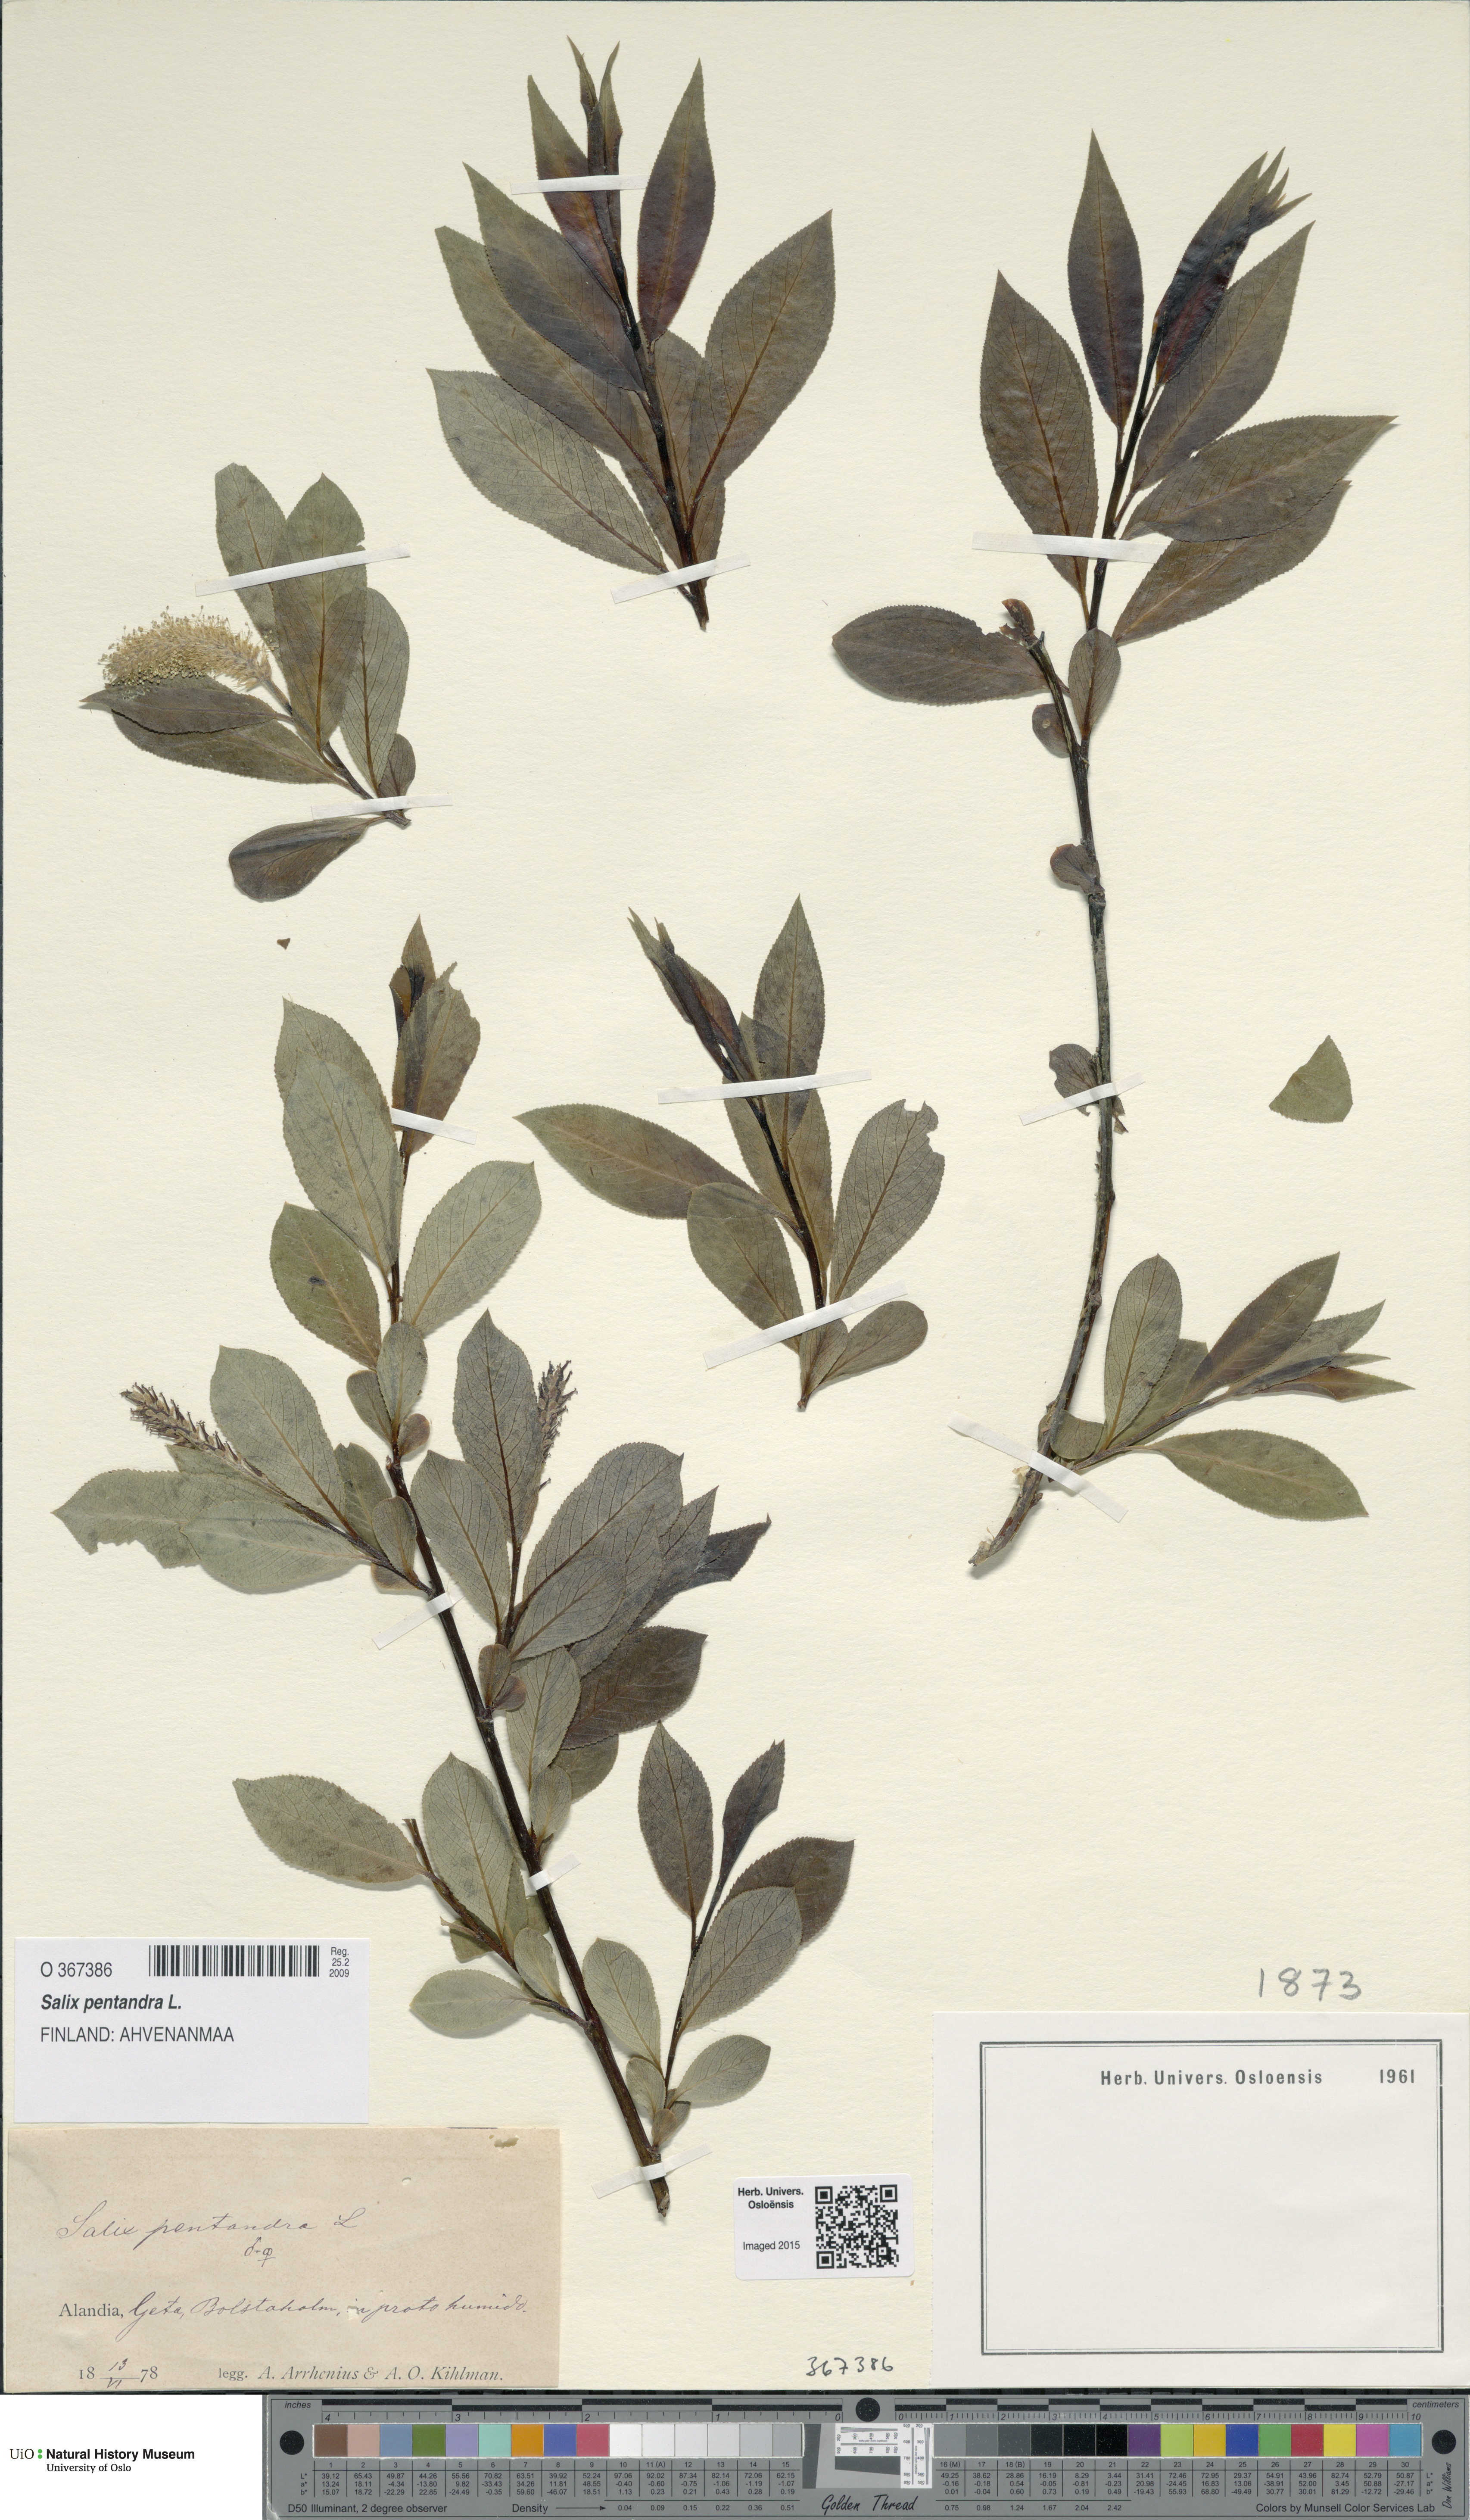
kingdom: Plantae
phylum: Tracheophyta
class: Magnoliopsida
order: Malpighiales
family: Salicaceae
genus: Salix
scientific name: Salix pentandra
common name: Bay willow
